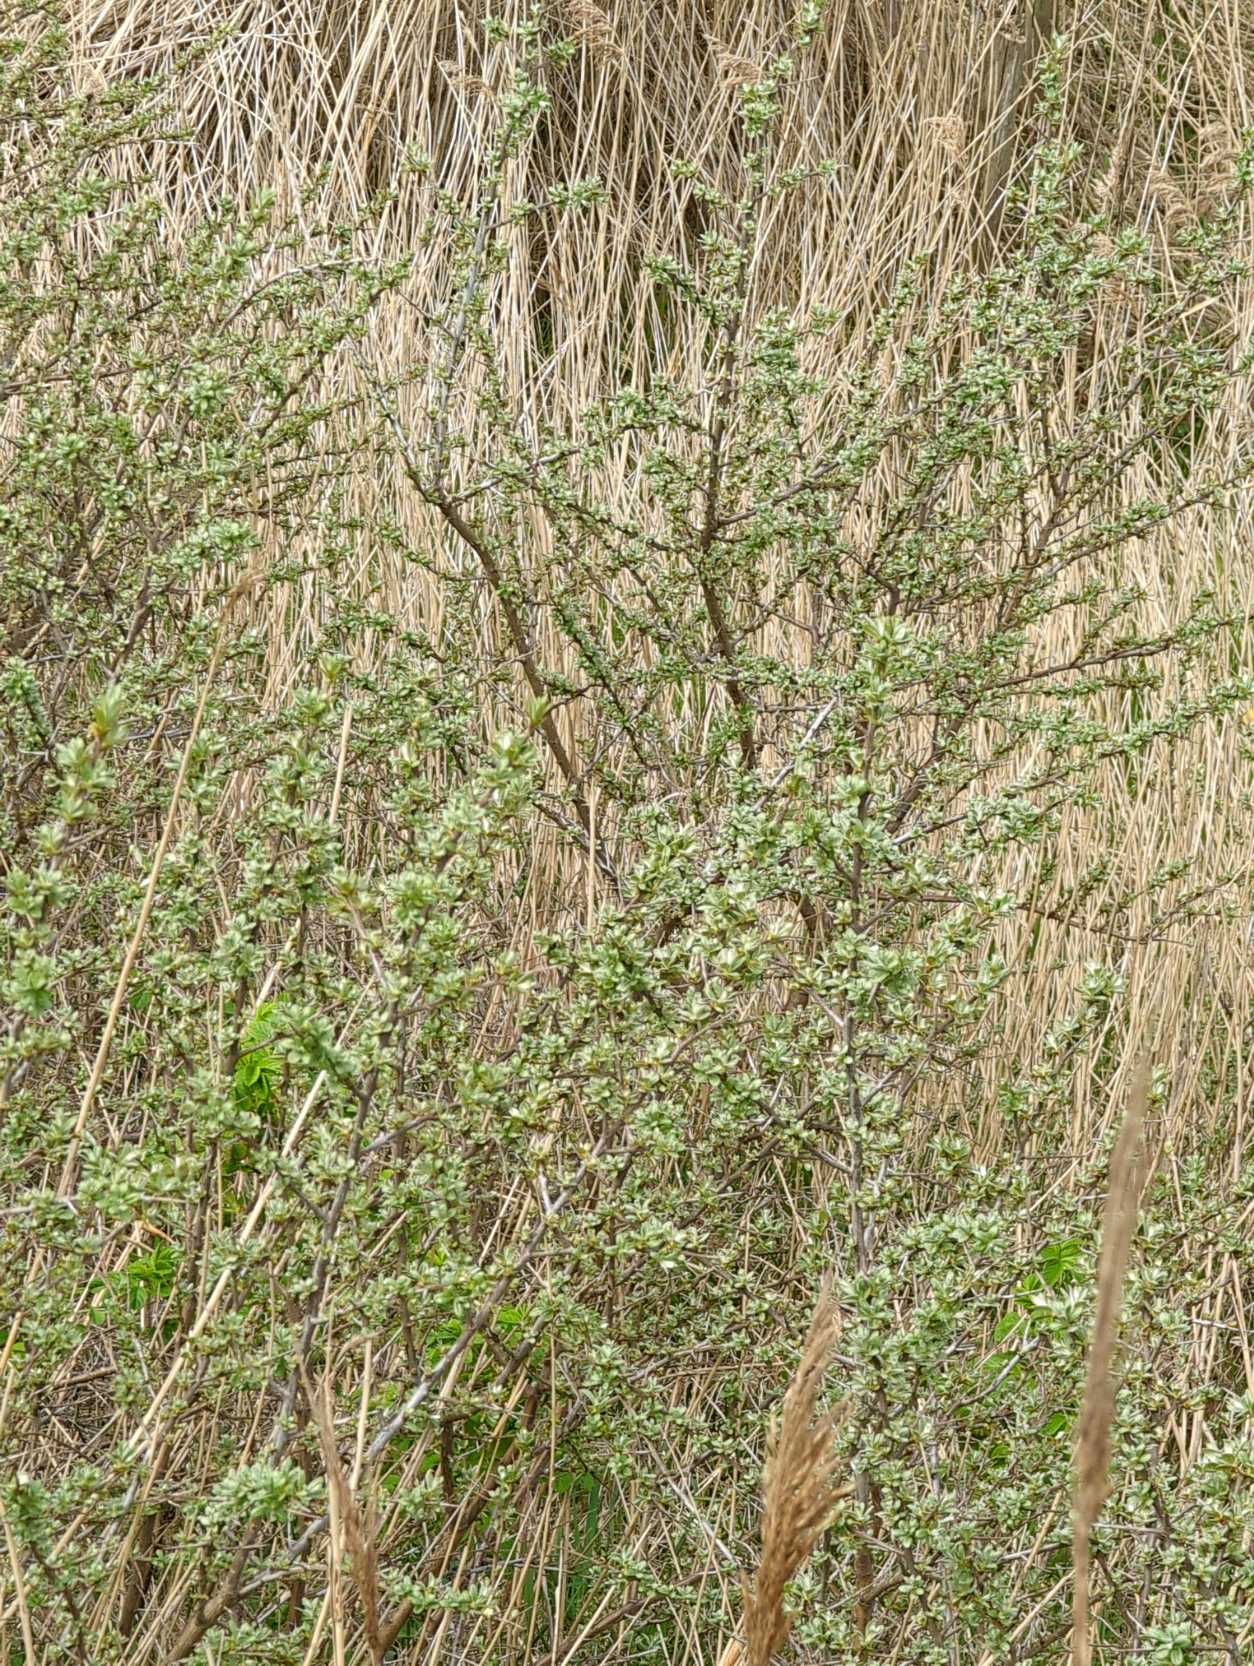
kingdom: Plantae
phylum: Tracheophyta
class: Magnoliopsida
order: Rosales
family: Elaeagnaceae
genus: Hippophae
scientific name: Hippophae rhamnoides
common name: Havtorn
